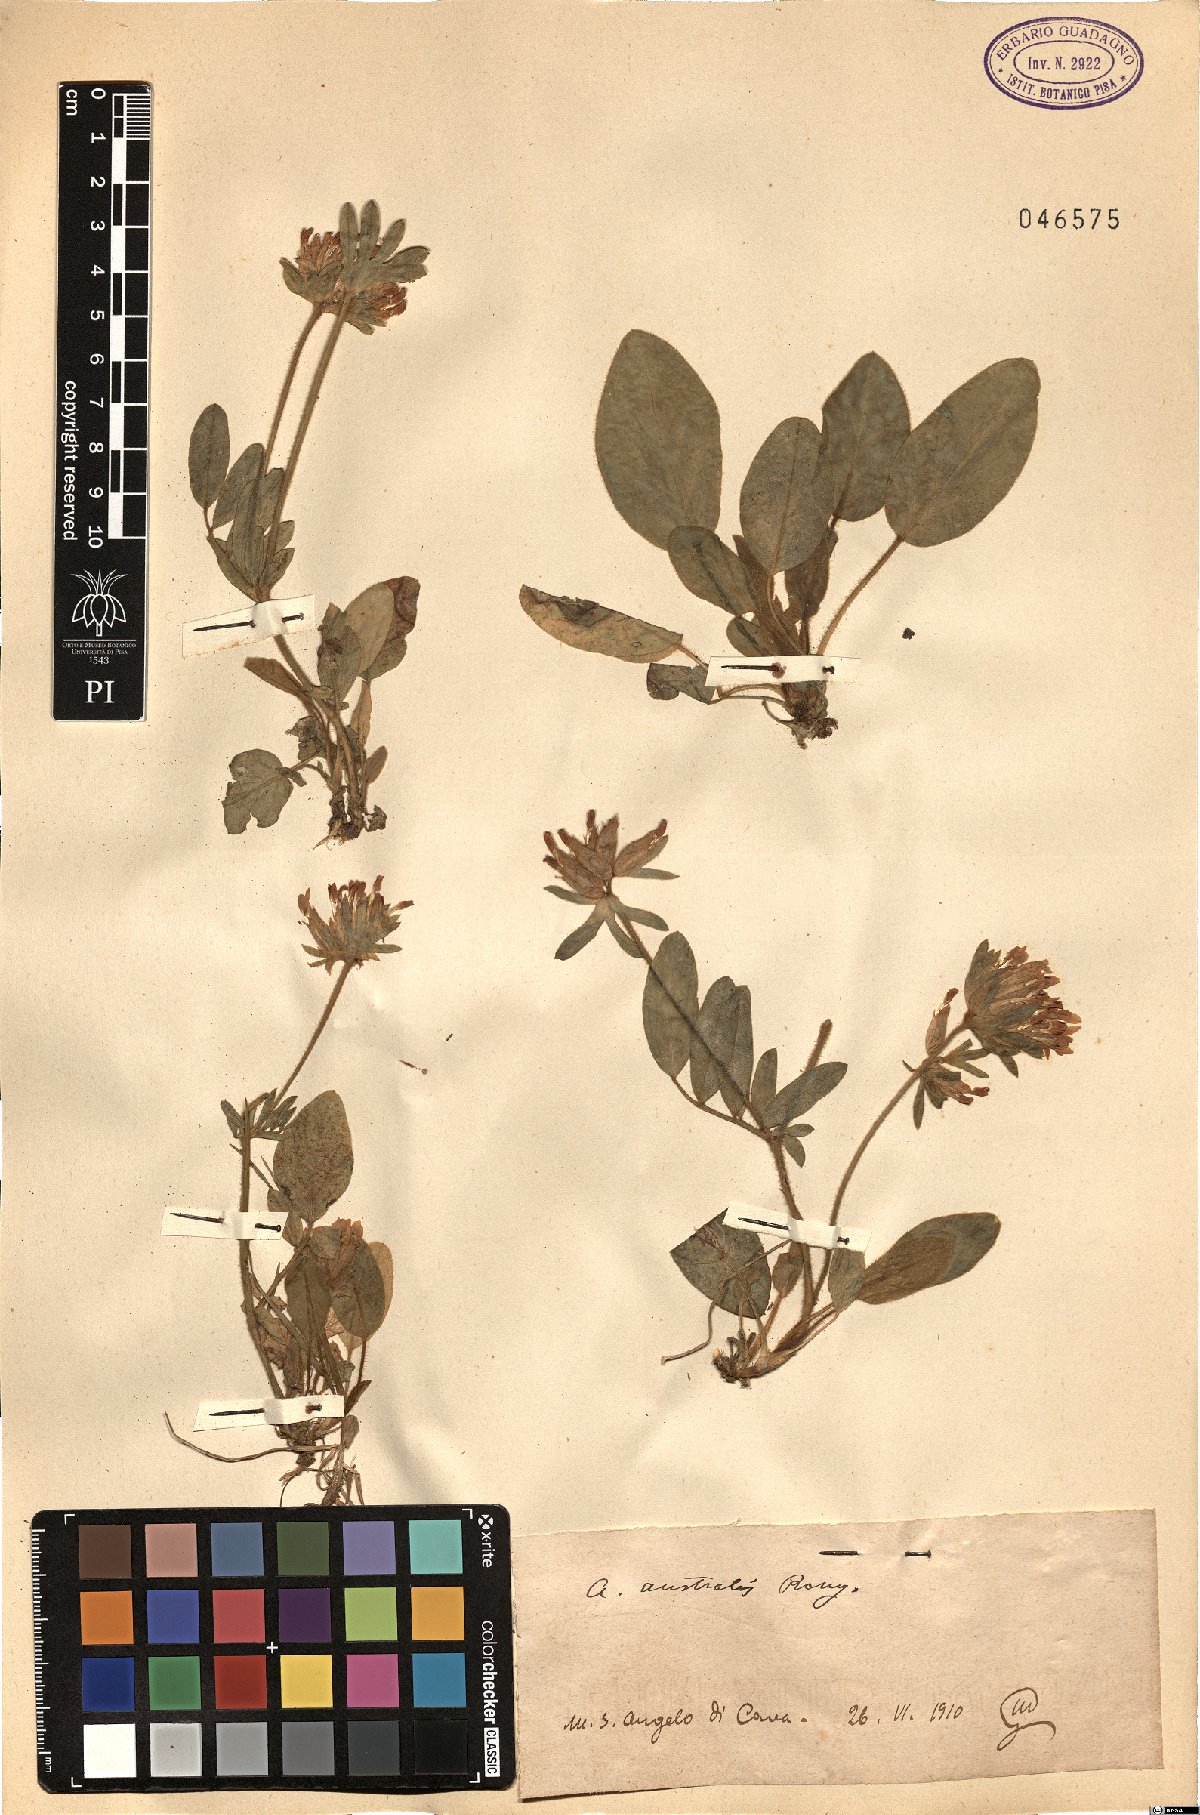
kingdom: Plantae
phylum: Tracheophyta
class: Magnoliopsida
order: Fabales
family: Fabaceae
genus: Anthyllis
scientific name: Anthyllis
